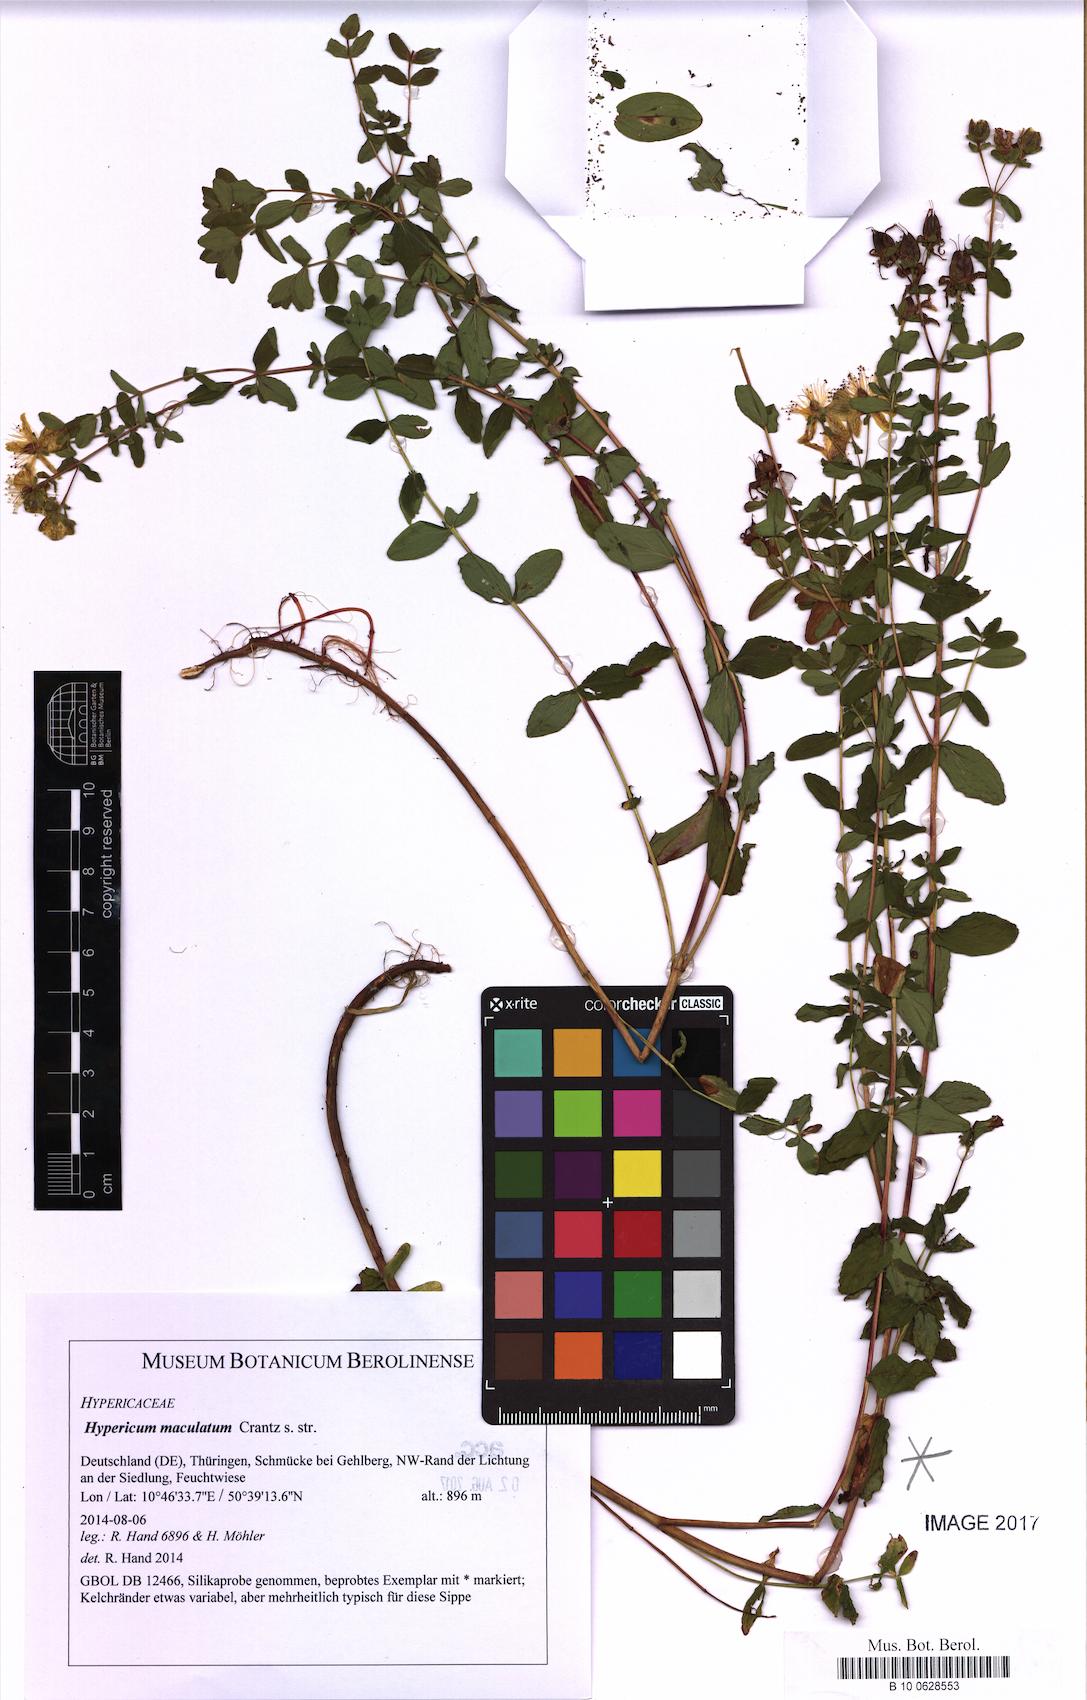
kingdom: Plantae
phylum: Tracheophyta
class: Magnoliopsida
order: Malpighiales
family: Hypericaceae
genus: Hypericum
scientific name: Hypericum maculatum
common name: Imperforate st. john's-wort
